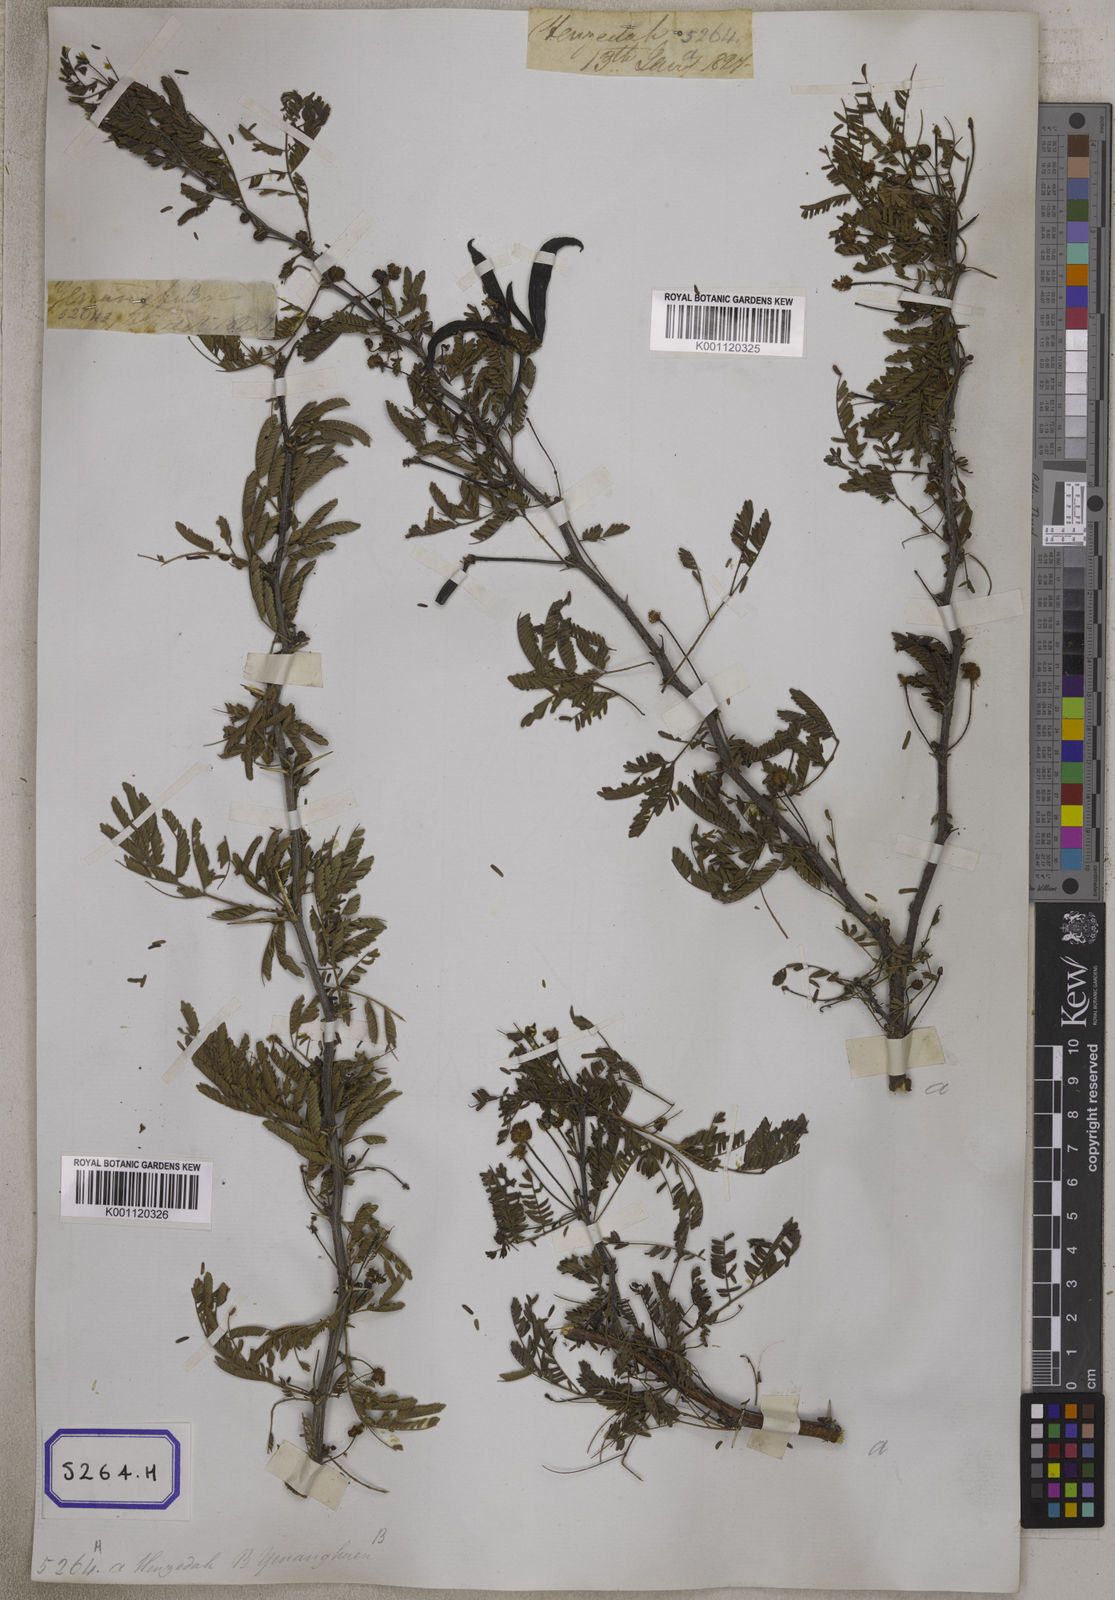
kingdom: Plantae
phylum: Tracheophyta
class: Magnoliopsida
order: Fabales
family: Fabaceae
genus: Vachellia
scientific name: Vachellia farnesiana
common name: Sweet acacia
